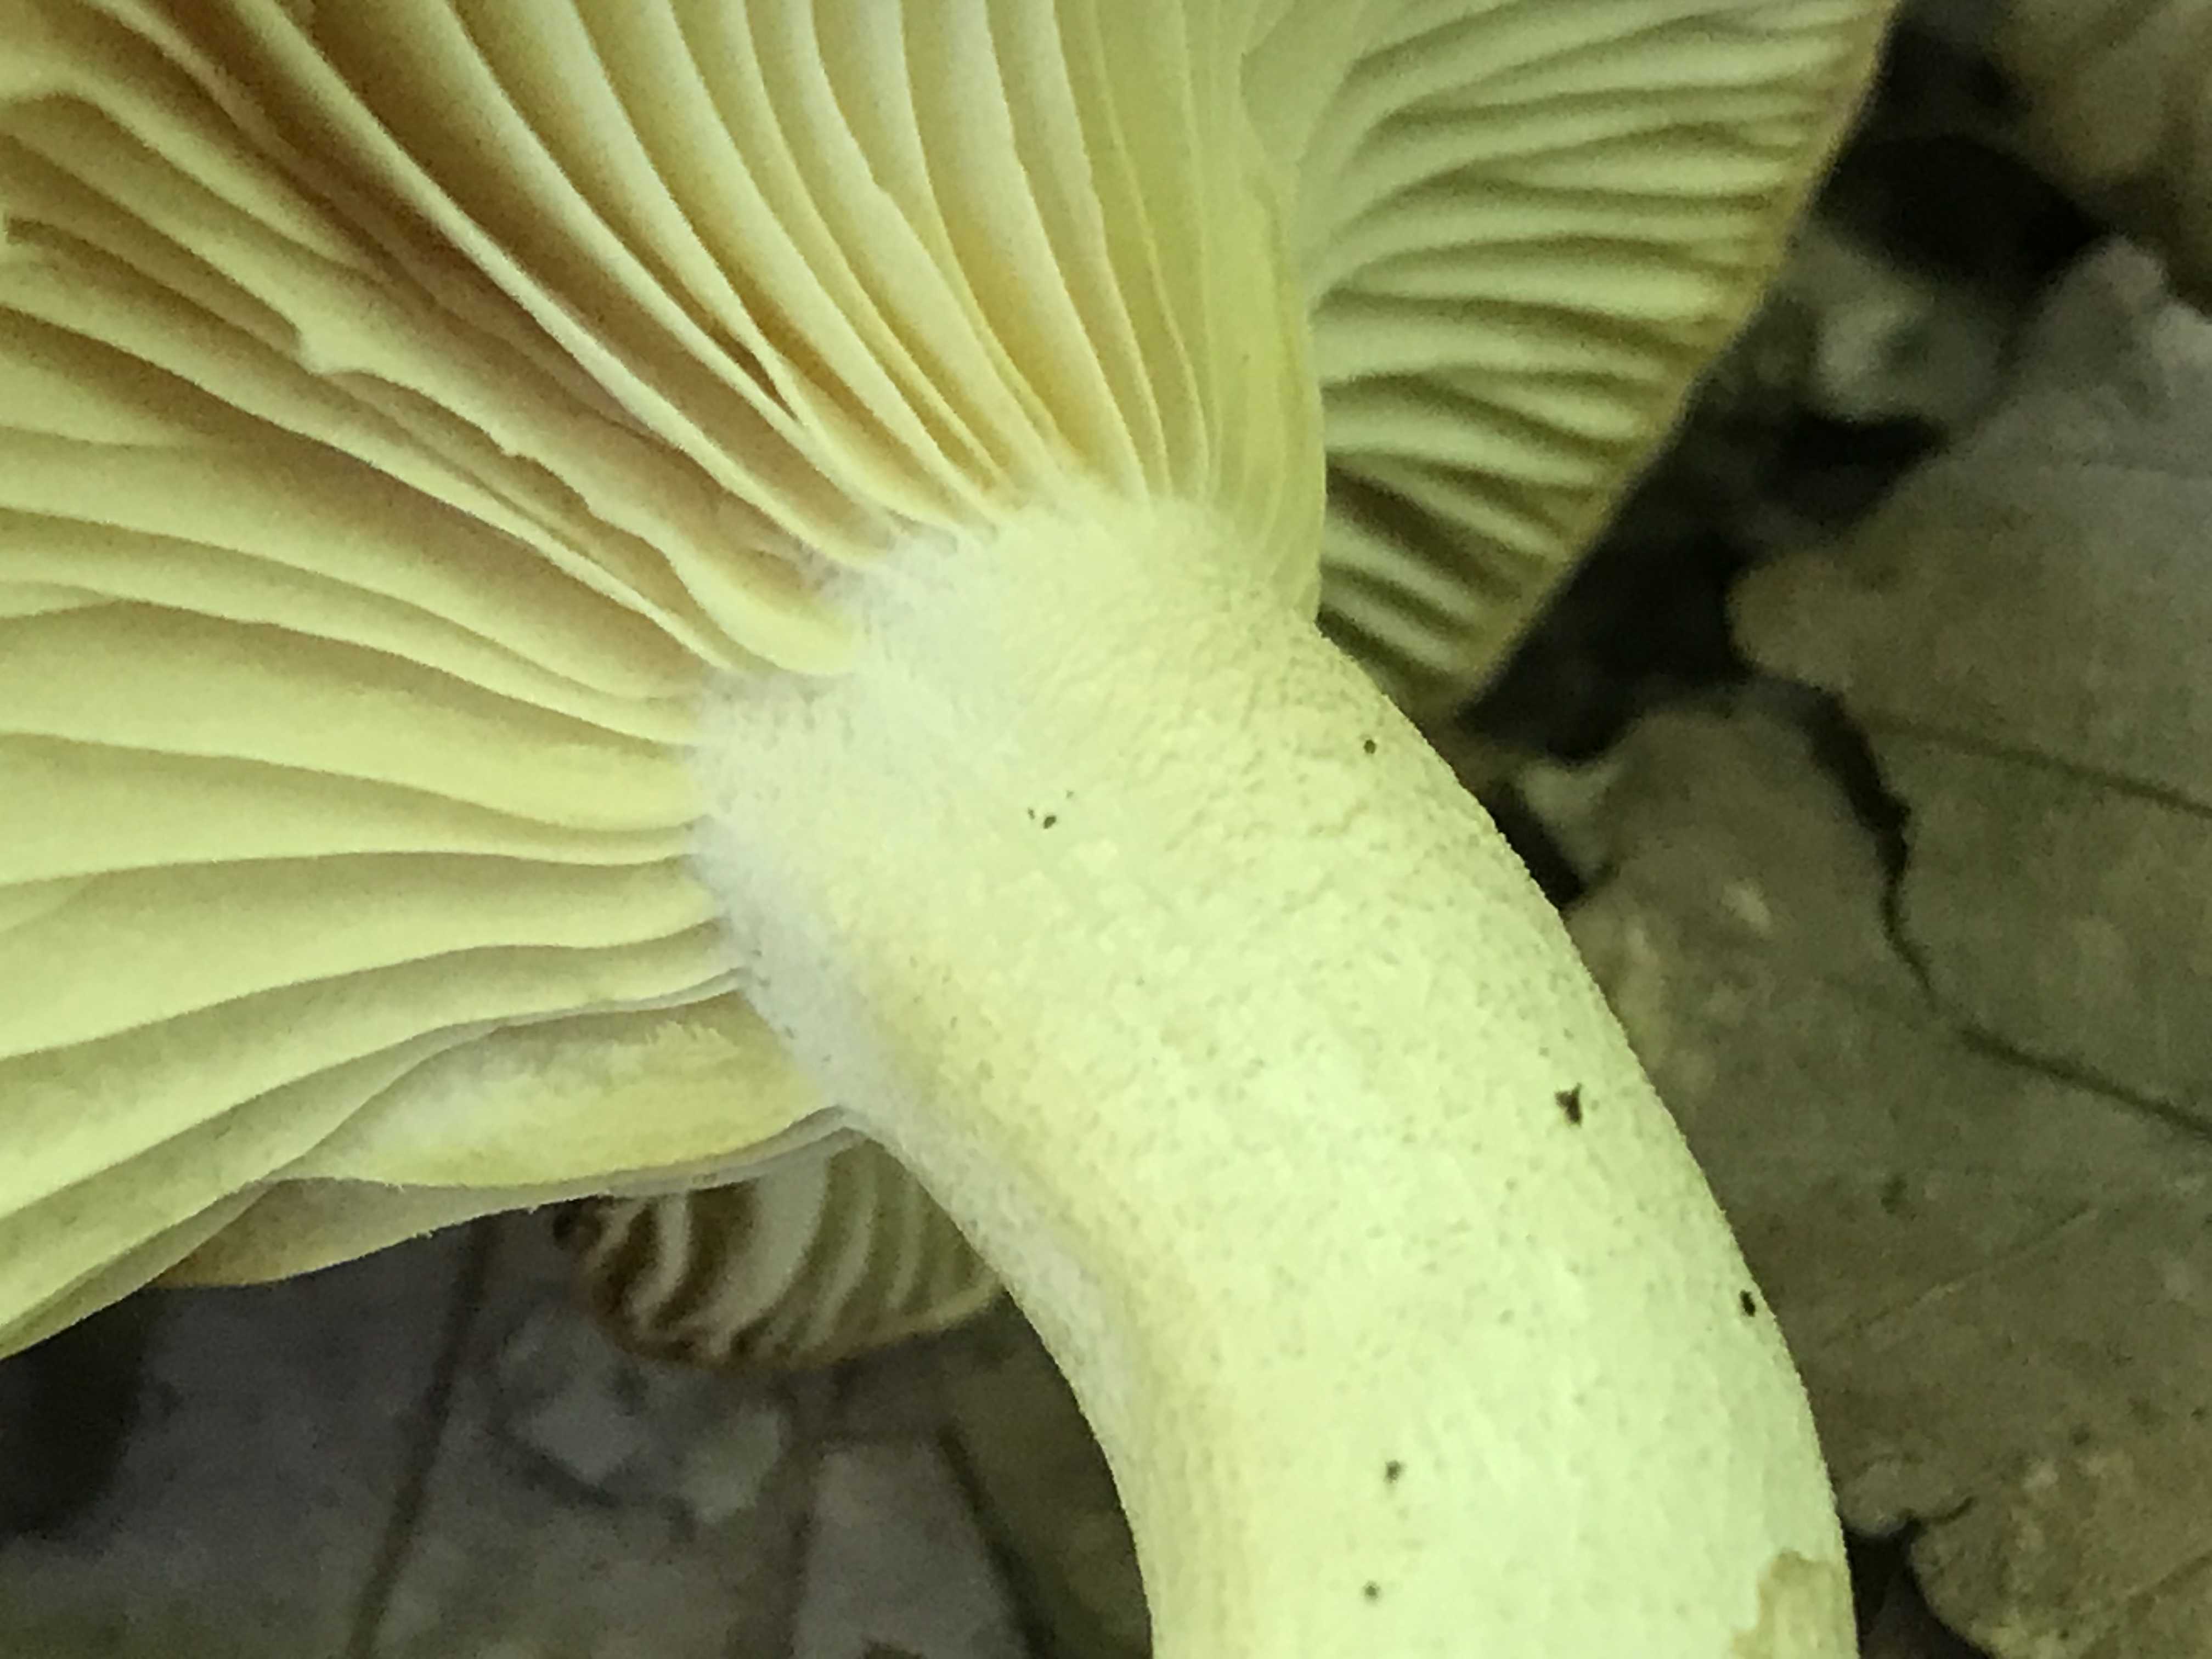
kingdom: Fungi
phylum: Basidiomycota
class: Agaricomycetes
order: Agaricales
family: Hygrophoraceae
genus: Hygrophorus
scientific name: Hygrophorus discoxanthus
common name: ildelugtende sneglehat
